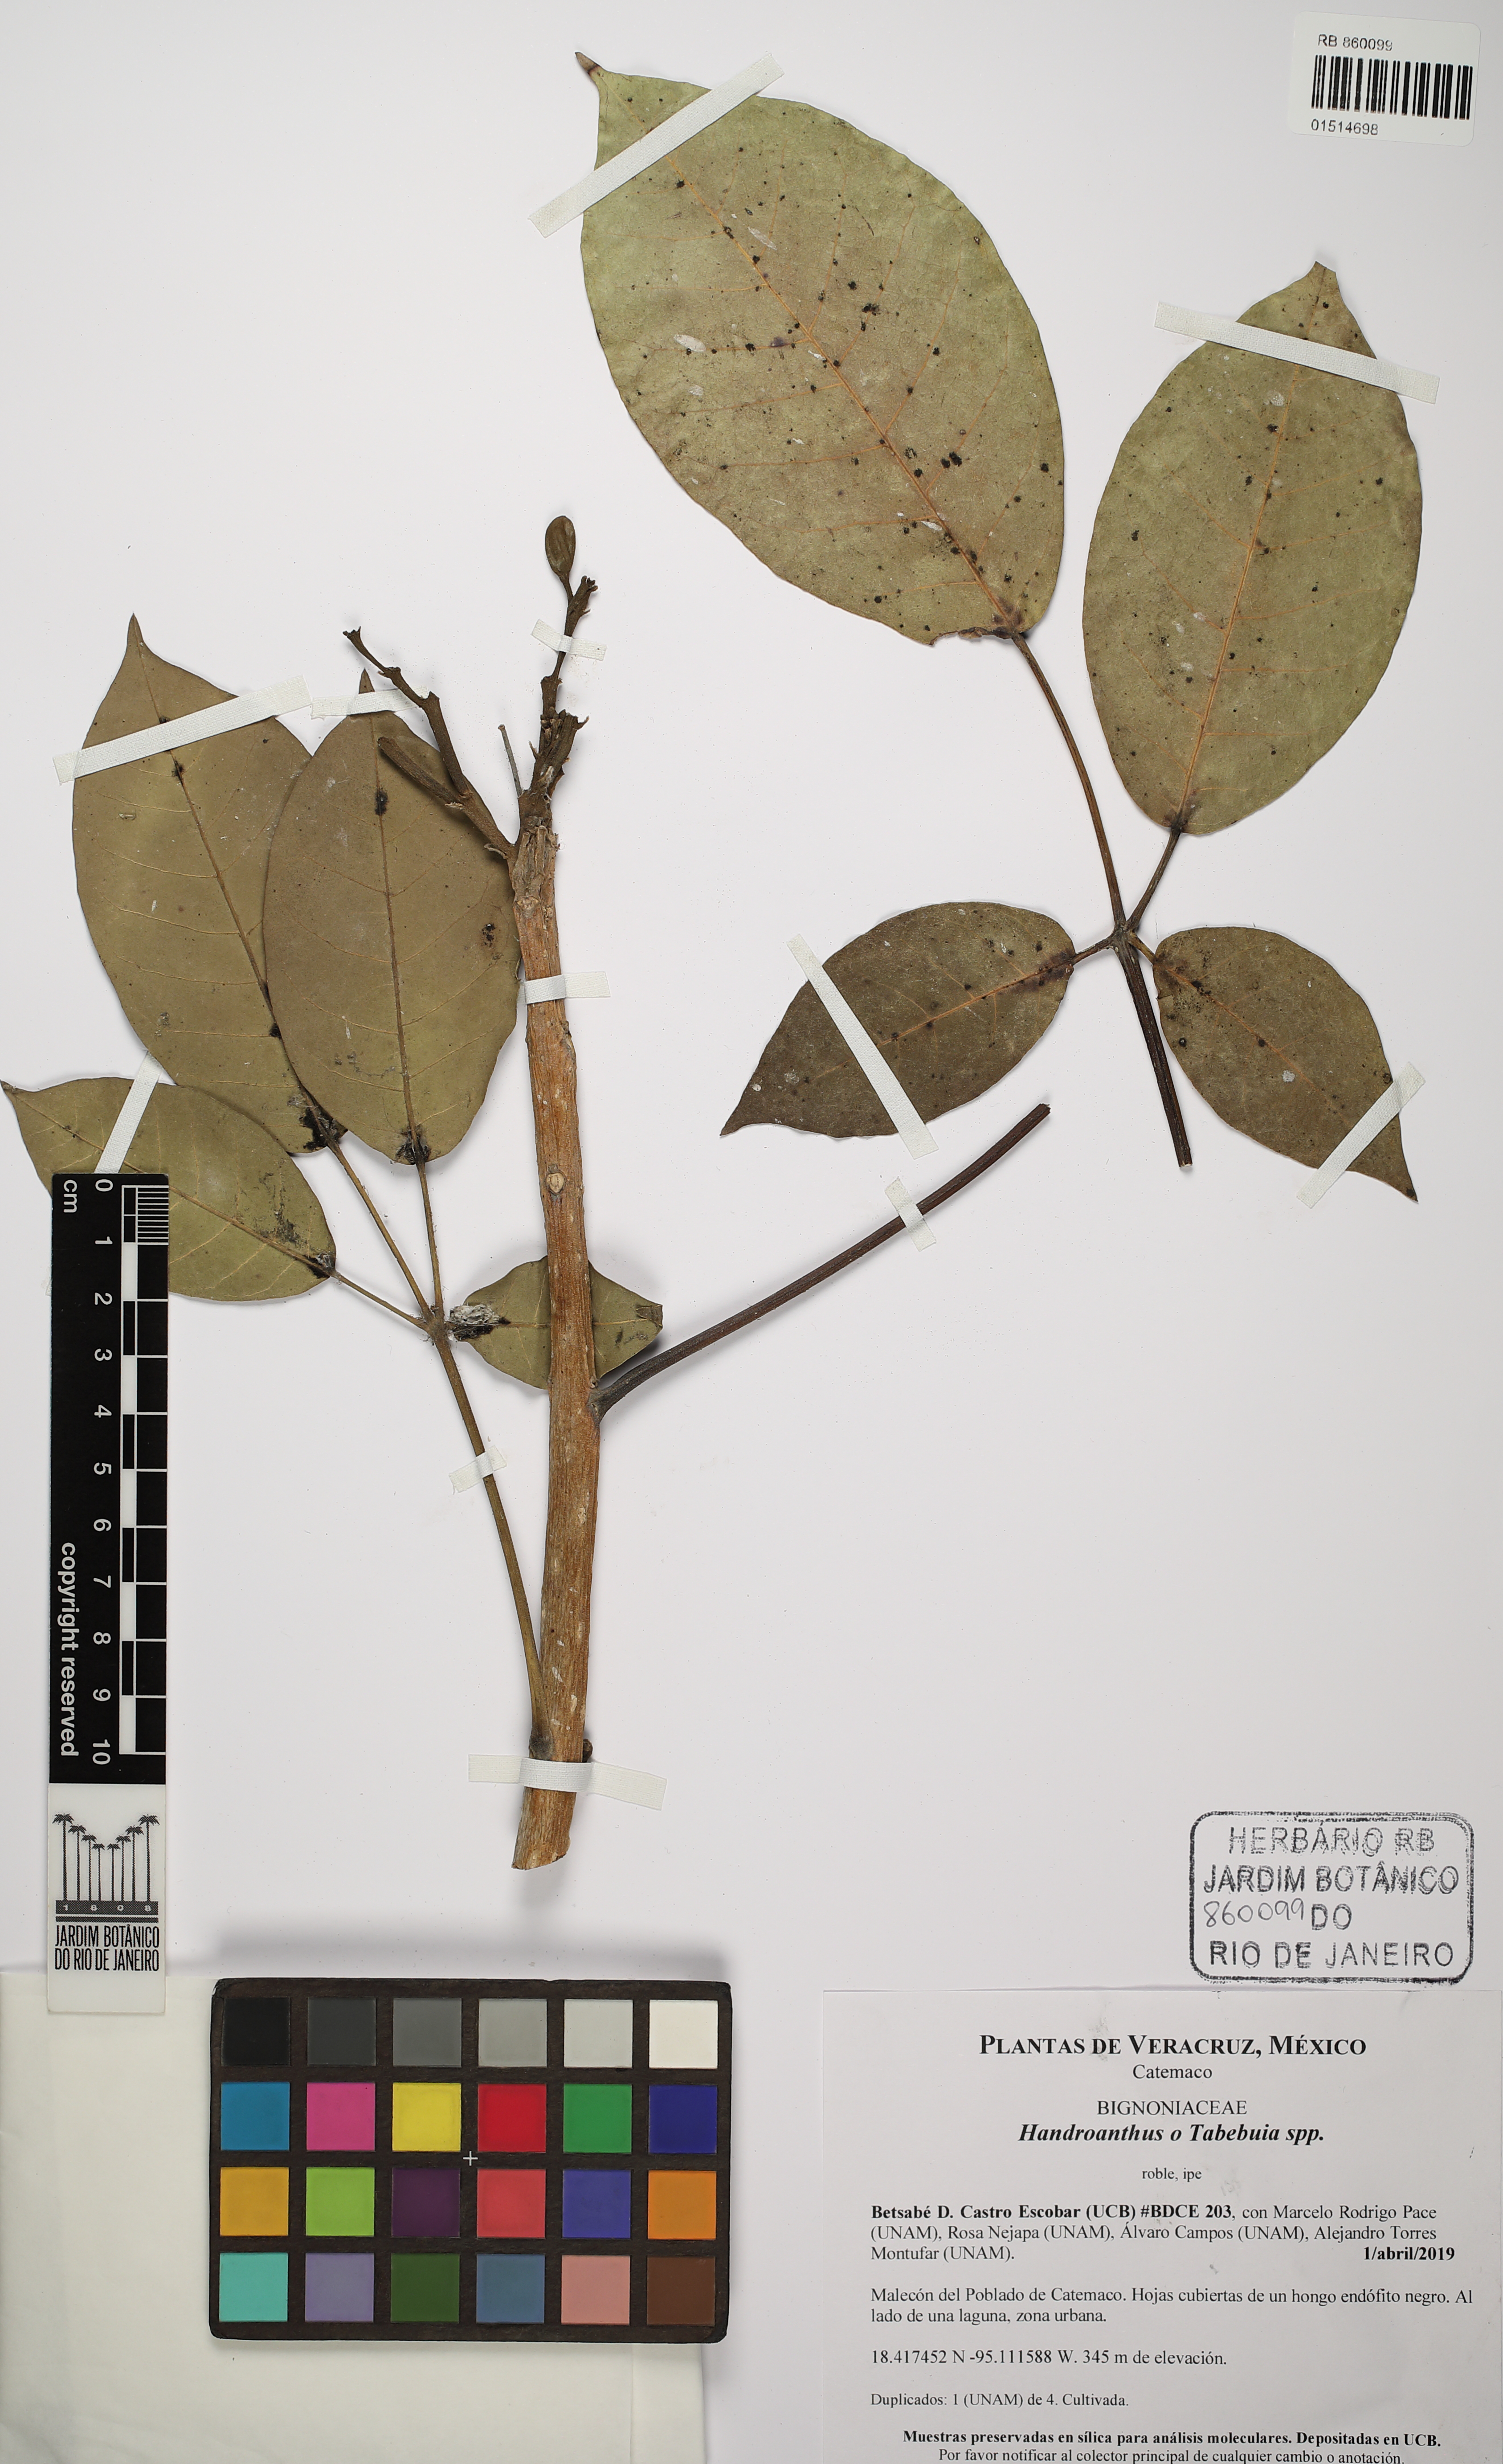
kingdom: Plantae
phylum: Tracheophyta
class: Magnoliopsida
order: Lamiales
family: Bignoniaceae
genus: Handroanthus
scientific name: Handroanthus
